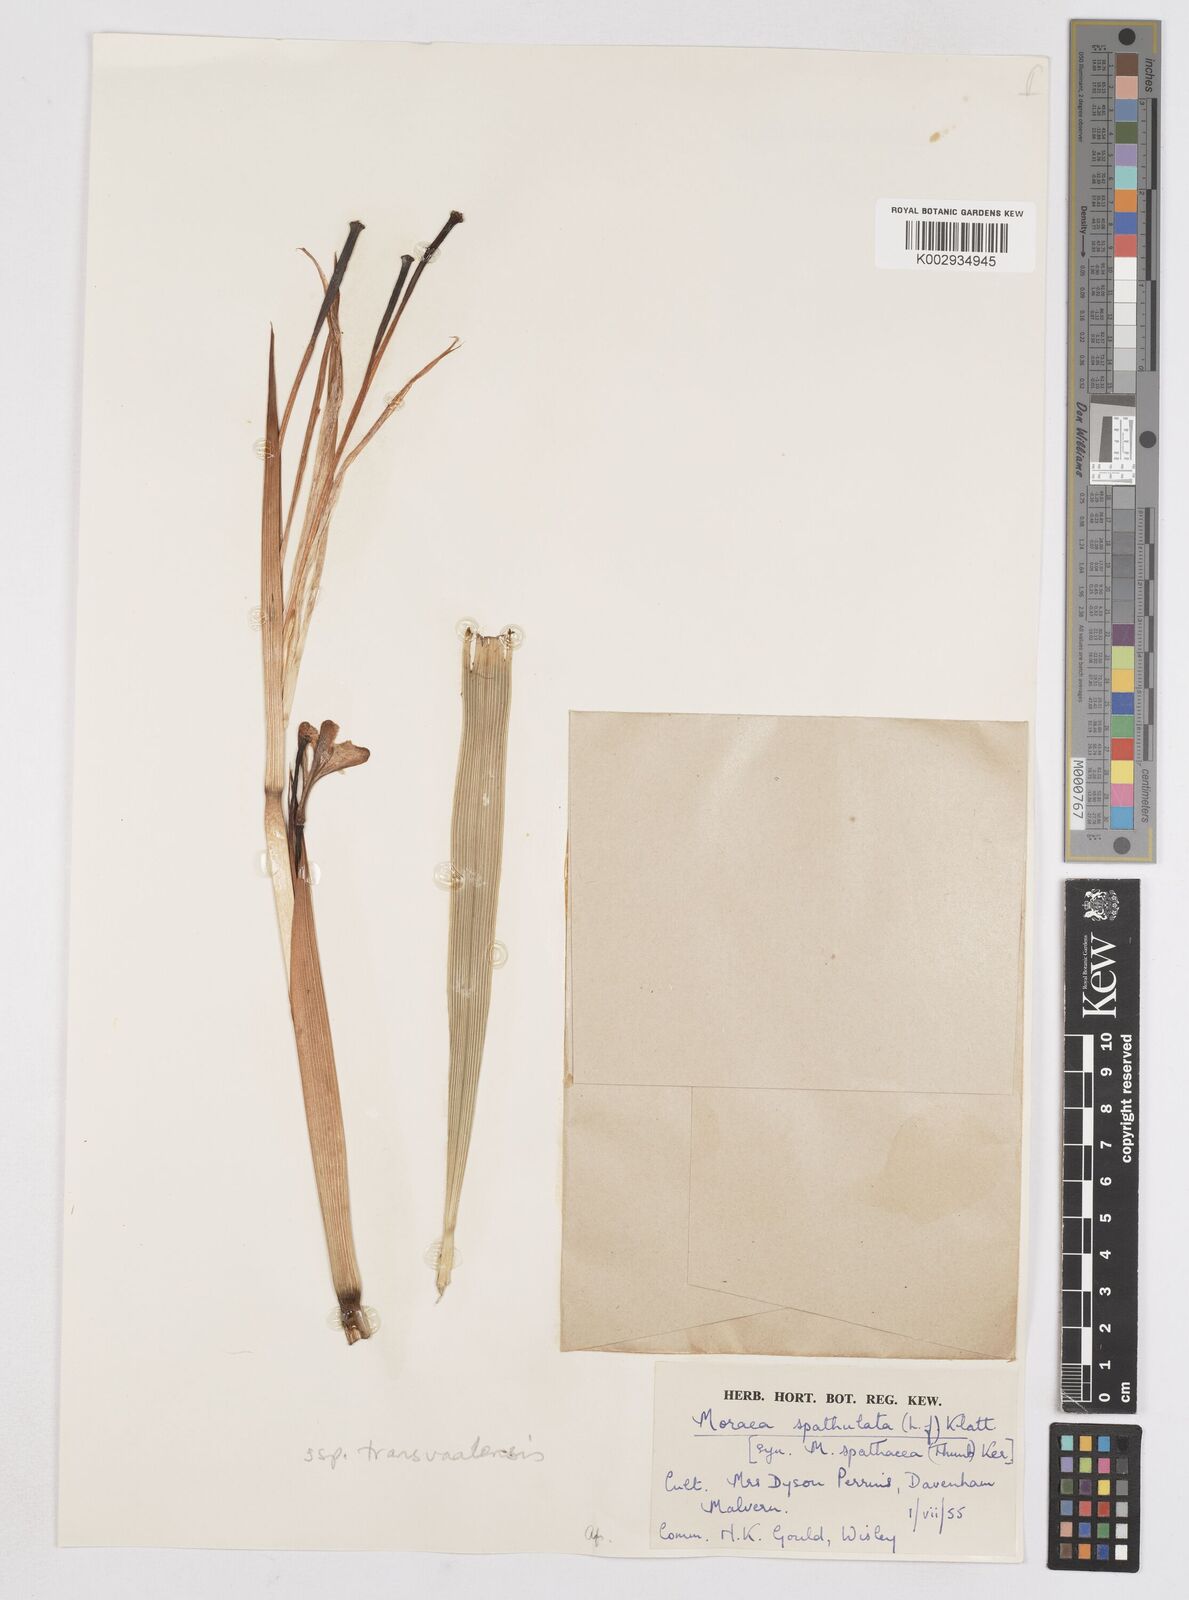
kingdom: Plantae
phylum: Tracheophyta
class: Liliopsida
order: Asparagales
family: Iridaceae
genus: Moraea
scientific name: Moraea spathulata
